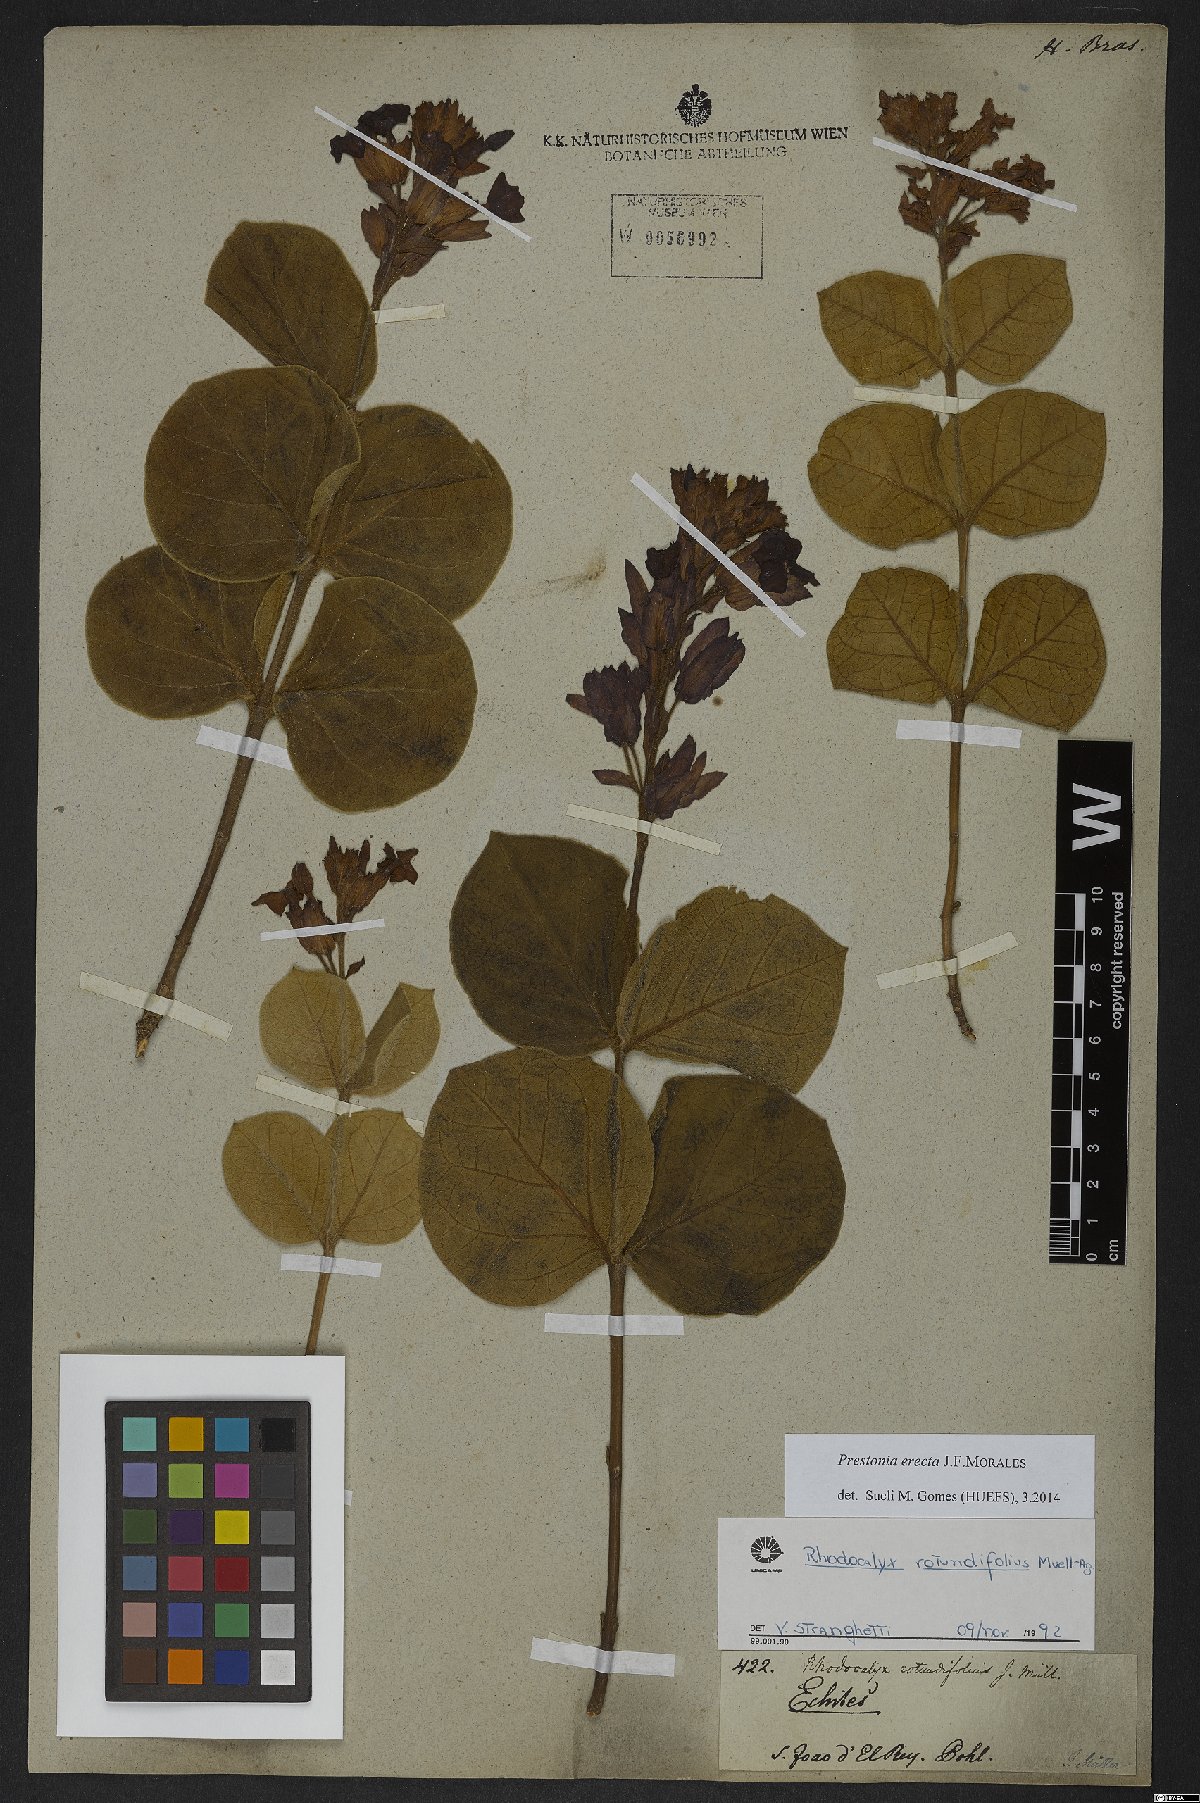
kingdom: Plantae
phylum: Tracheophyta
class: Magnoliopsida
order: Gentianales
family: Apocynaceae
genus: Prestonia
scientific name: Prestonia erecta
